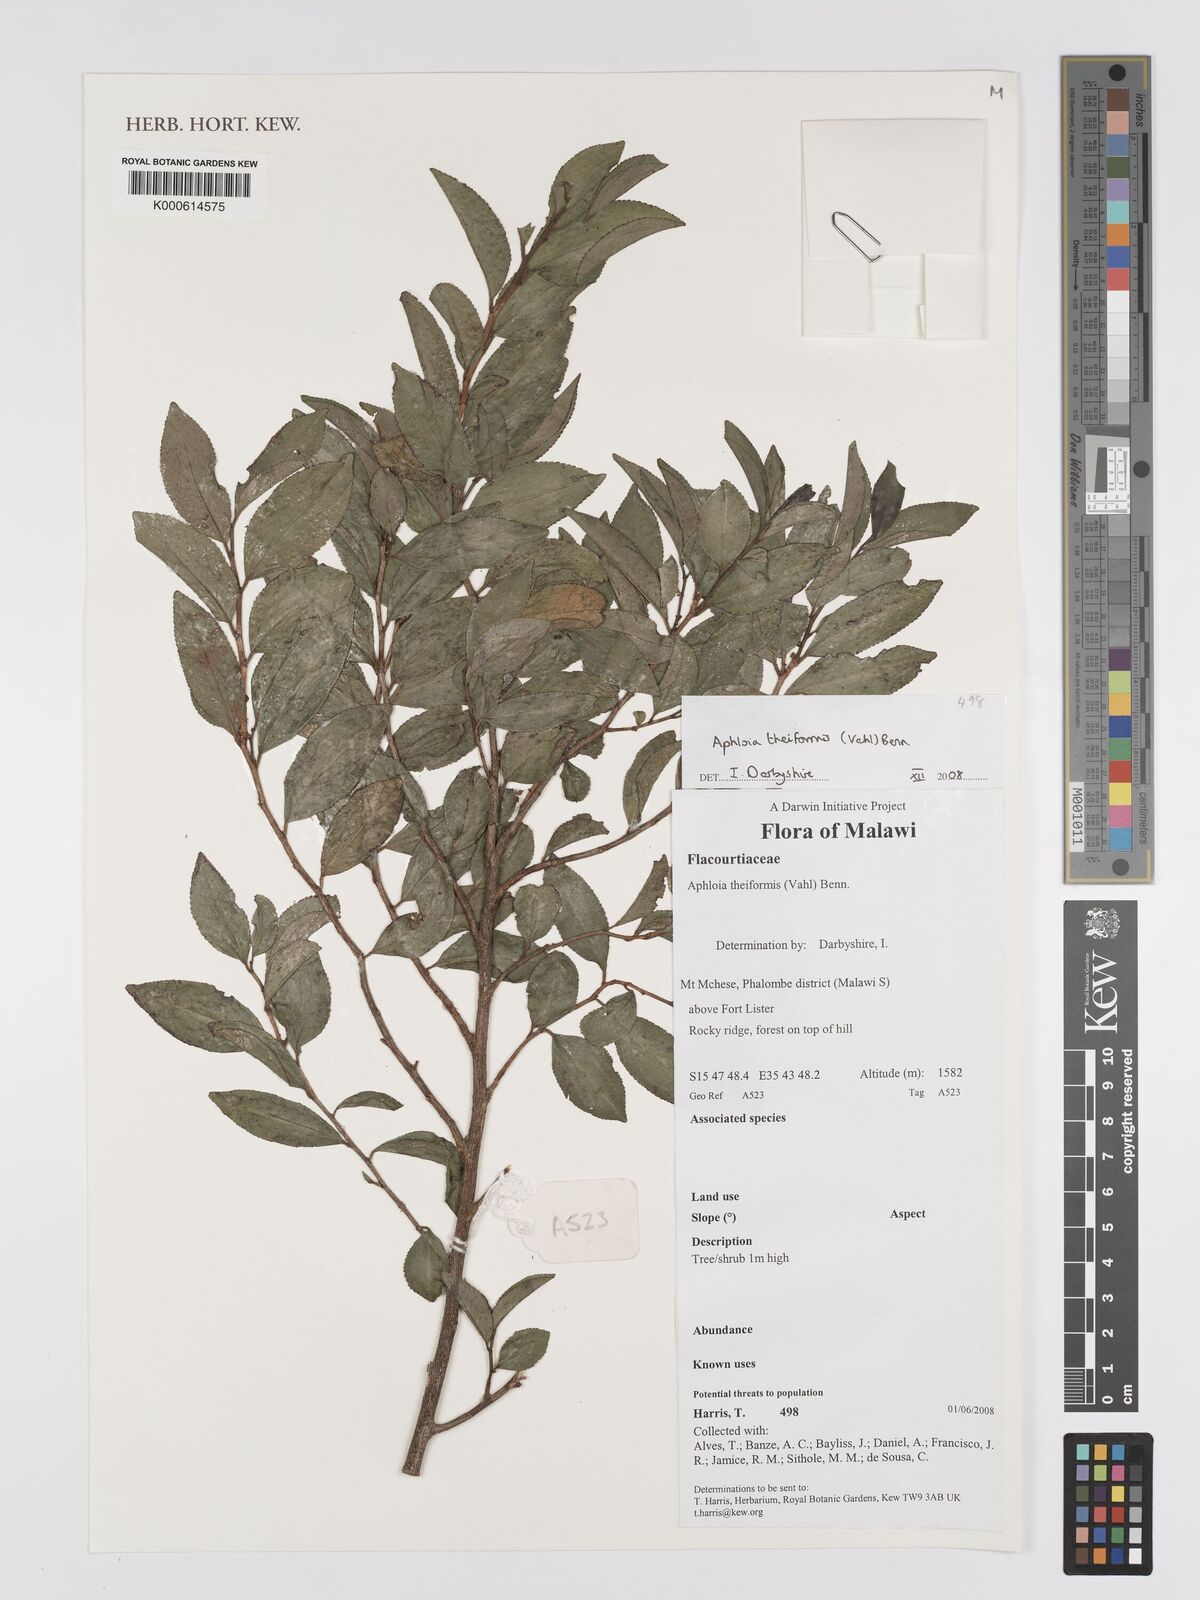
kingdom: Plantae
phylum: Tracheophyta
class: Magnoliopsida
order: Crossosomatales
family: Aphloiaceae
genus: Aphloia
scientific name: Aphloia theiformis
